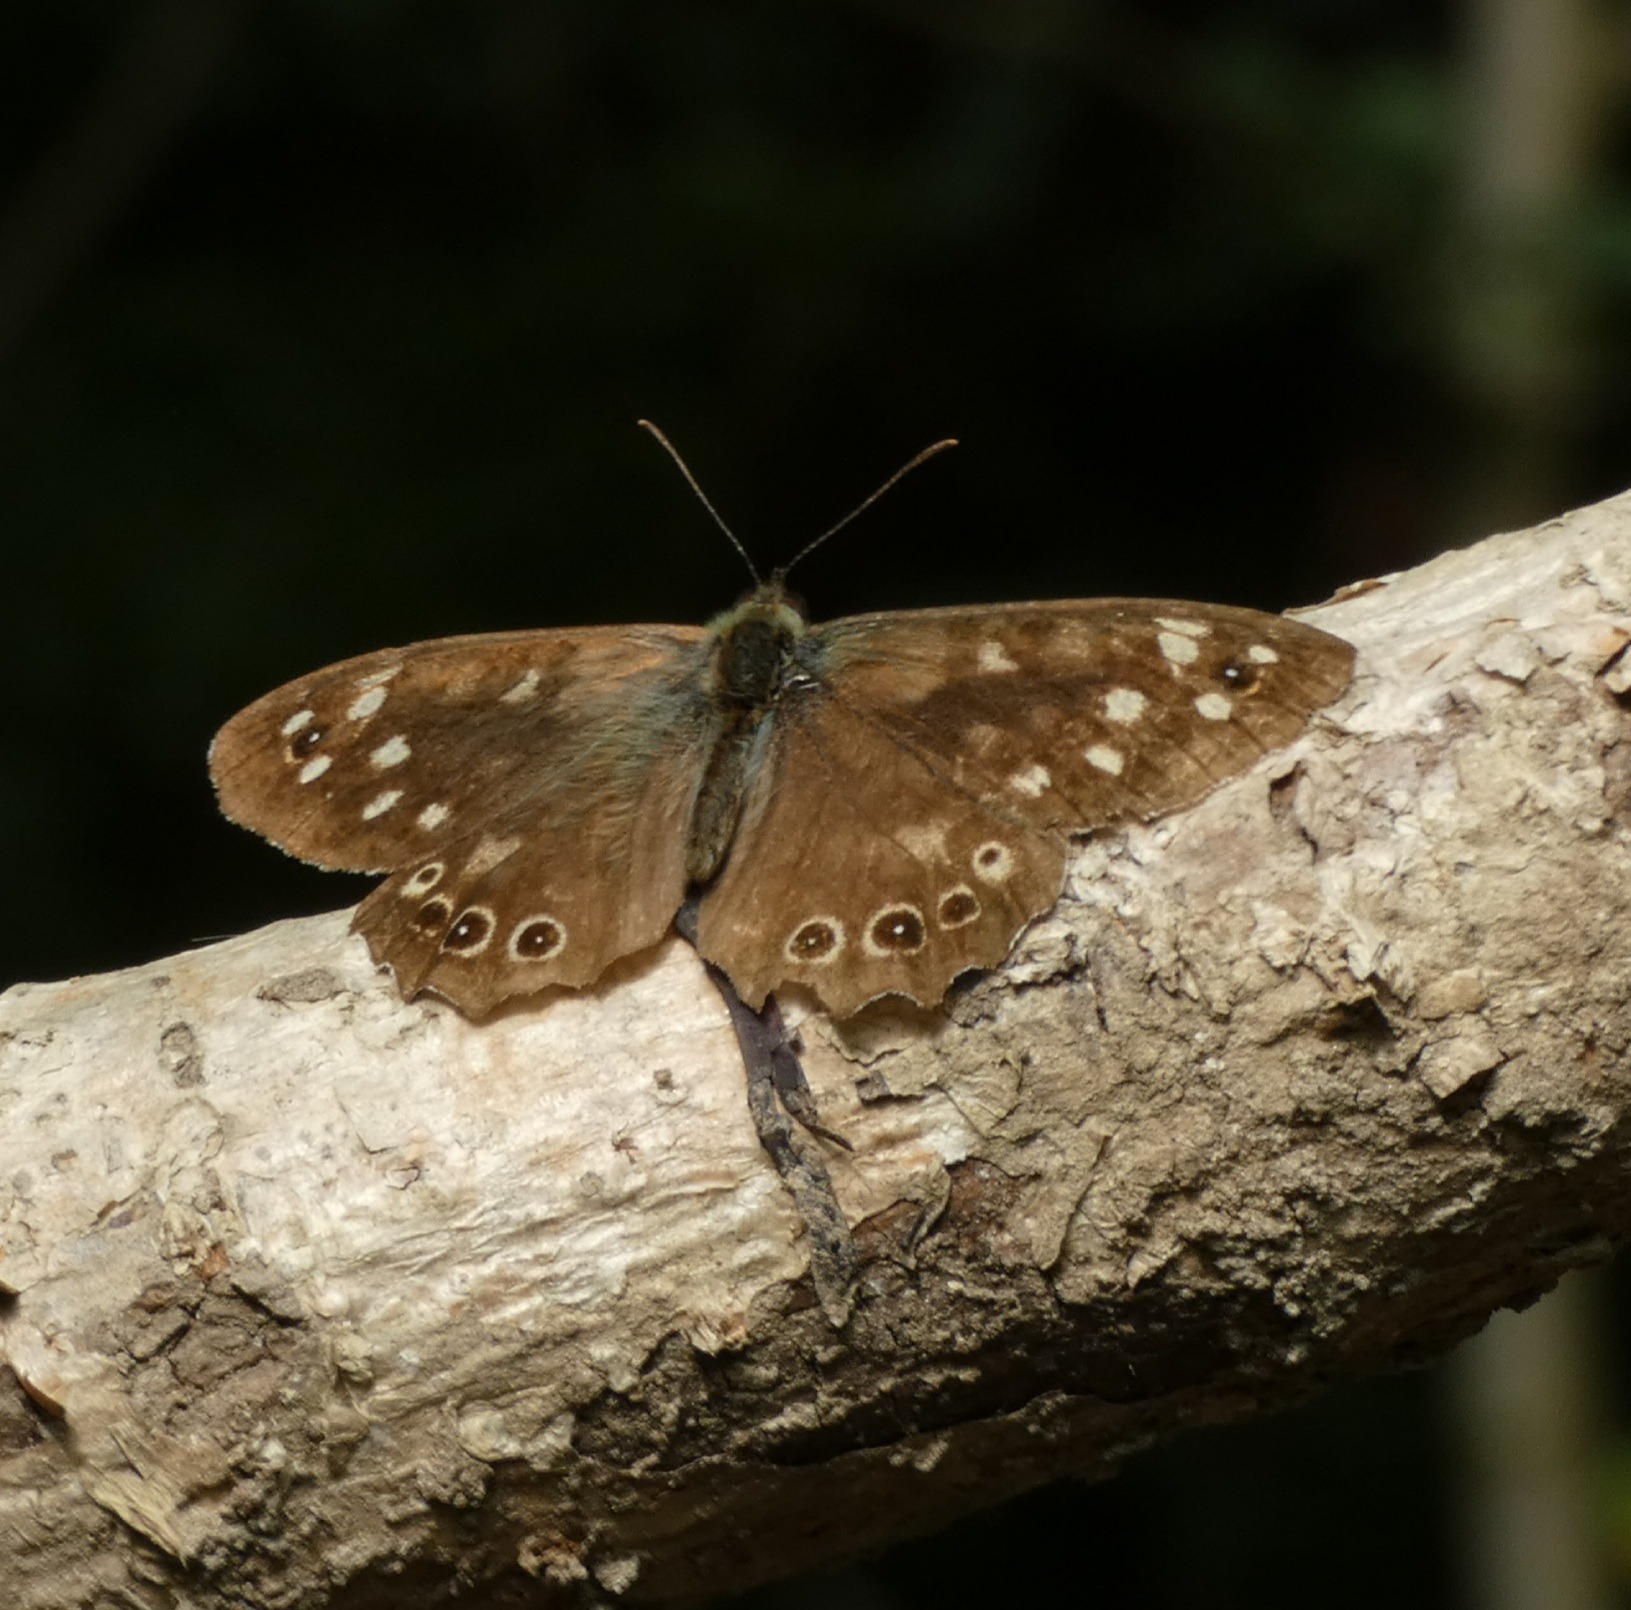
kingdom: Animalia
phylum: Arthropoda
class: Insecta
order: Lepidoptera
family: Nymphalidae
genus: Pararge
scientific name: Pararge aegeria
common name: Skovrandøje
